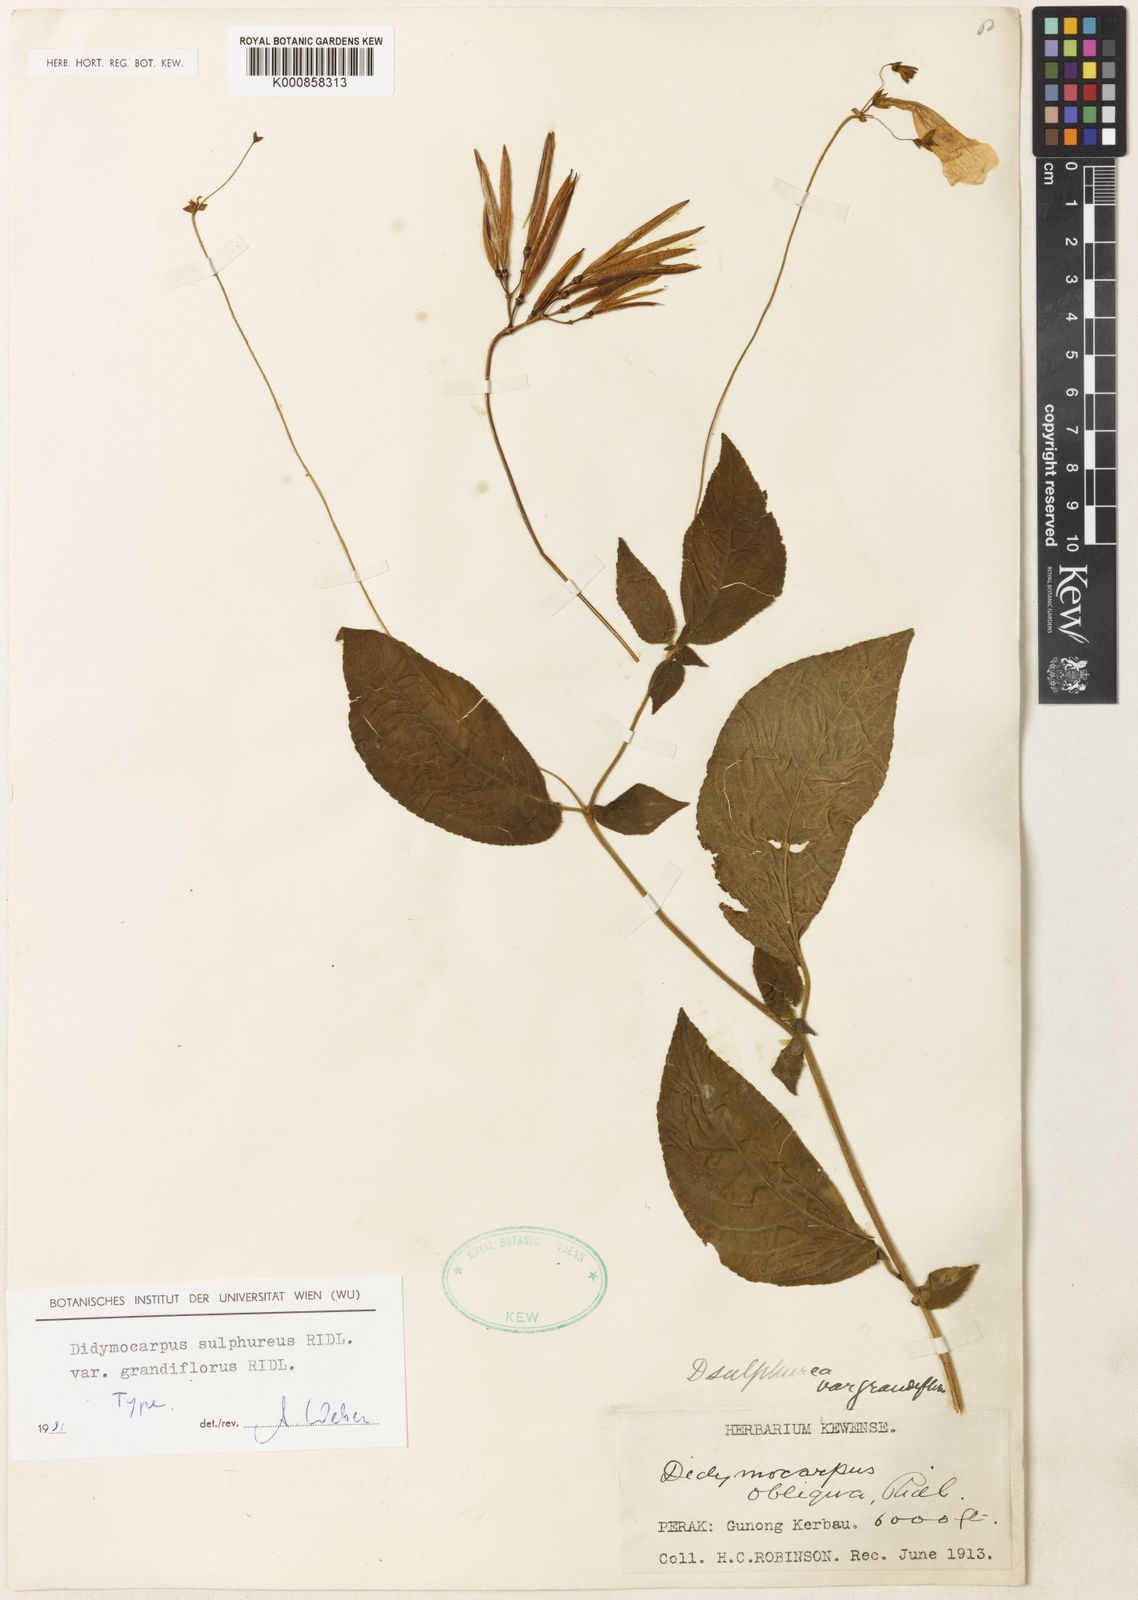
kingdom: Plantae
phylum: Tracheophyta
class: Magnoliopsida
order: Lamiales
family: Gesneriaceae
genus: Didymocarpus
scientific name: Didymocarpus sulphureus
